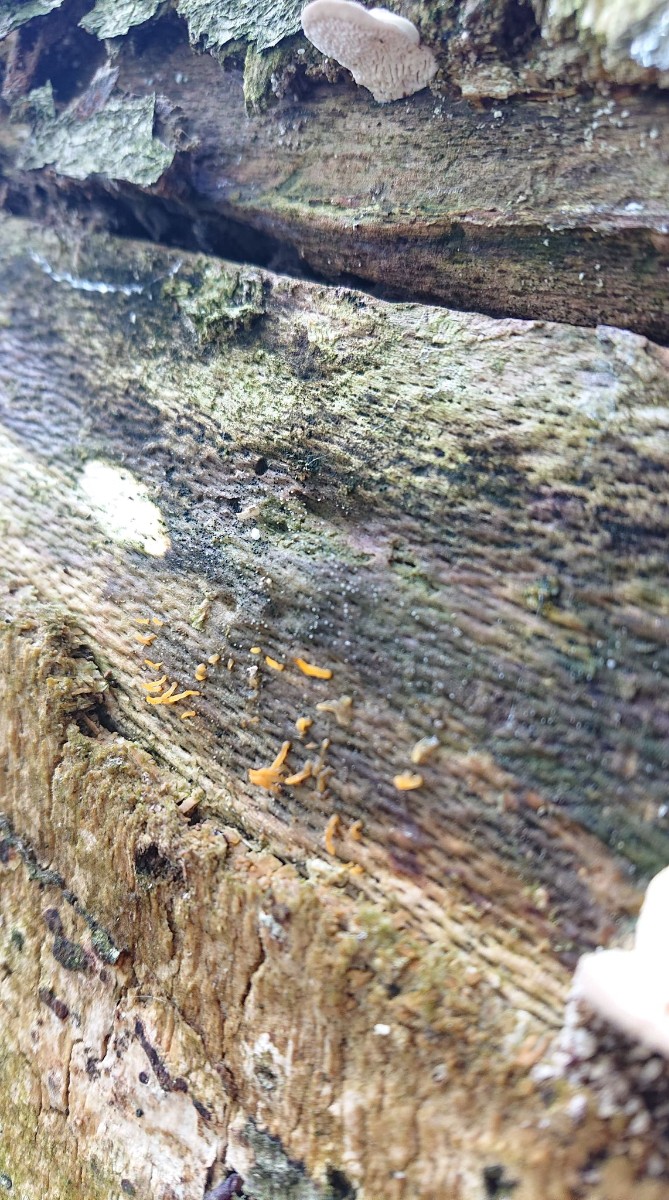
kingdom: Fungi
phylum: Basidiomycota
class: Dacrymycetes
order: Dacrymycetales
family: Dacrymycetaceae
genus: Calocera
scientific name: Calocera cornea
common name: liden guldgaffel
